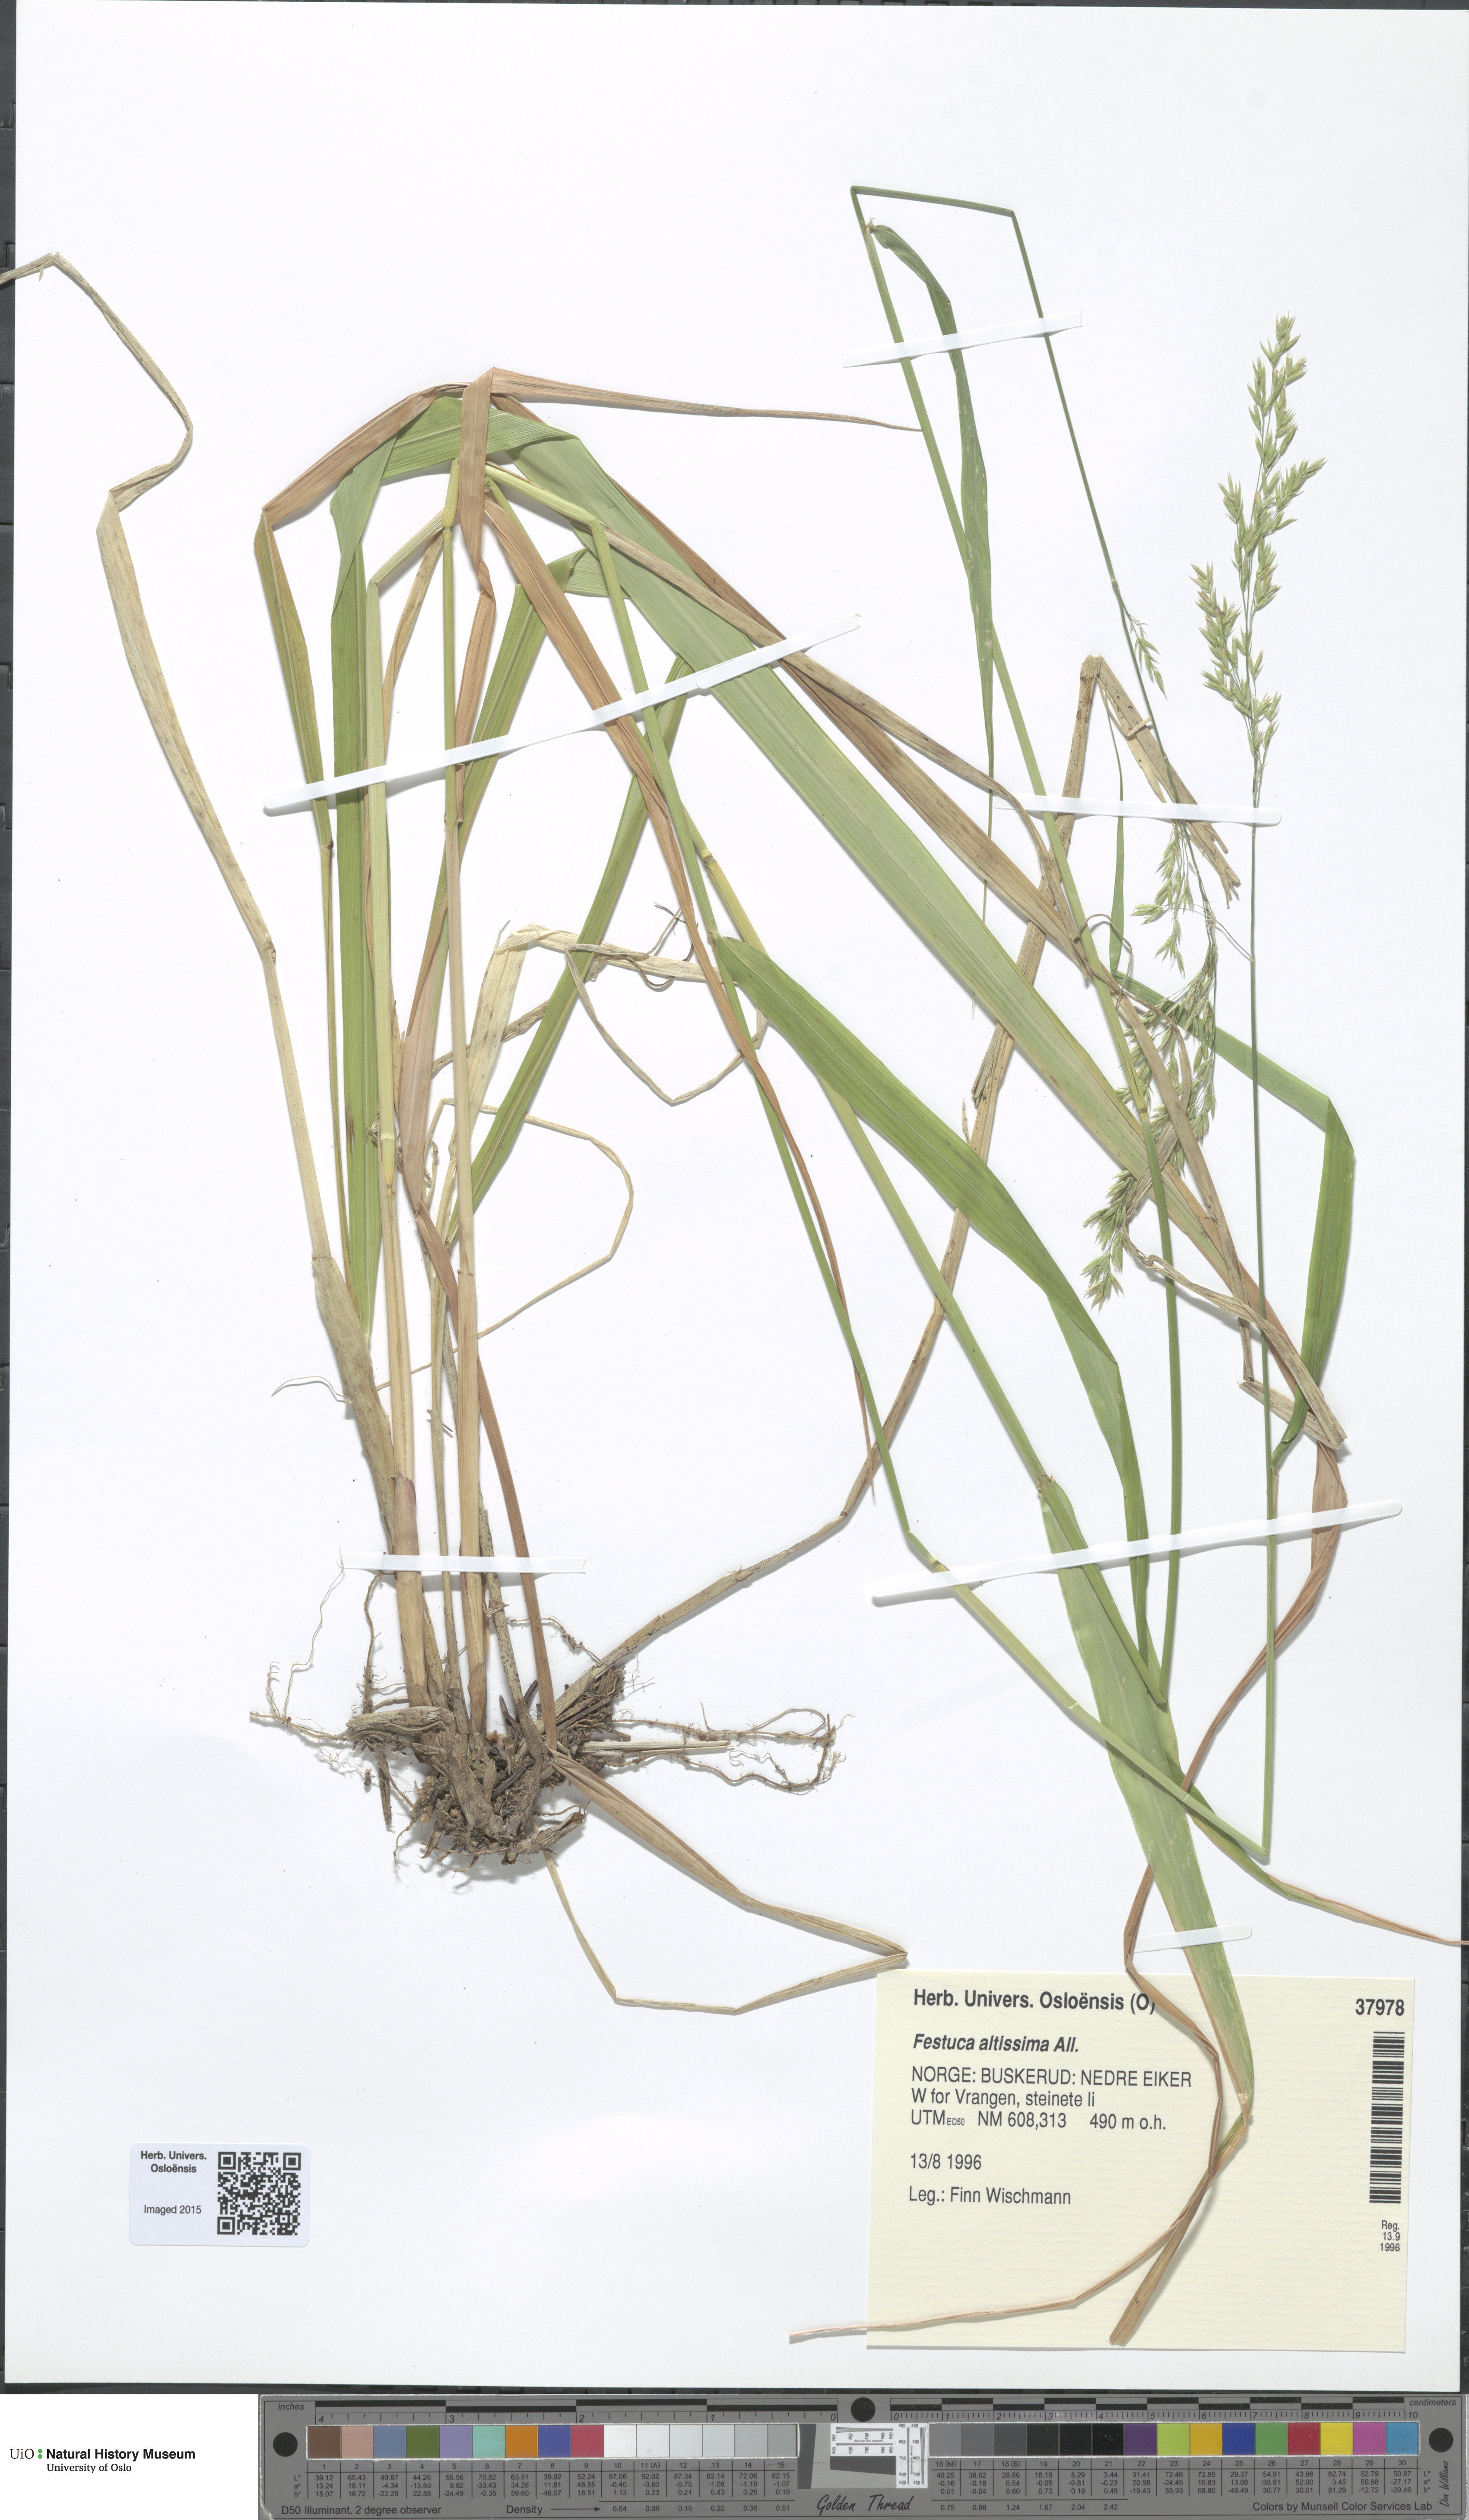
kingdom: Plantae
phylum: Tracheophyta
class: Liliopsida
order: Poales
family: Poaceae
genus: Festuca
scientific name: Festuca altissima
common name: Wood fescue
